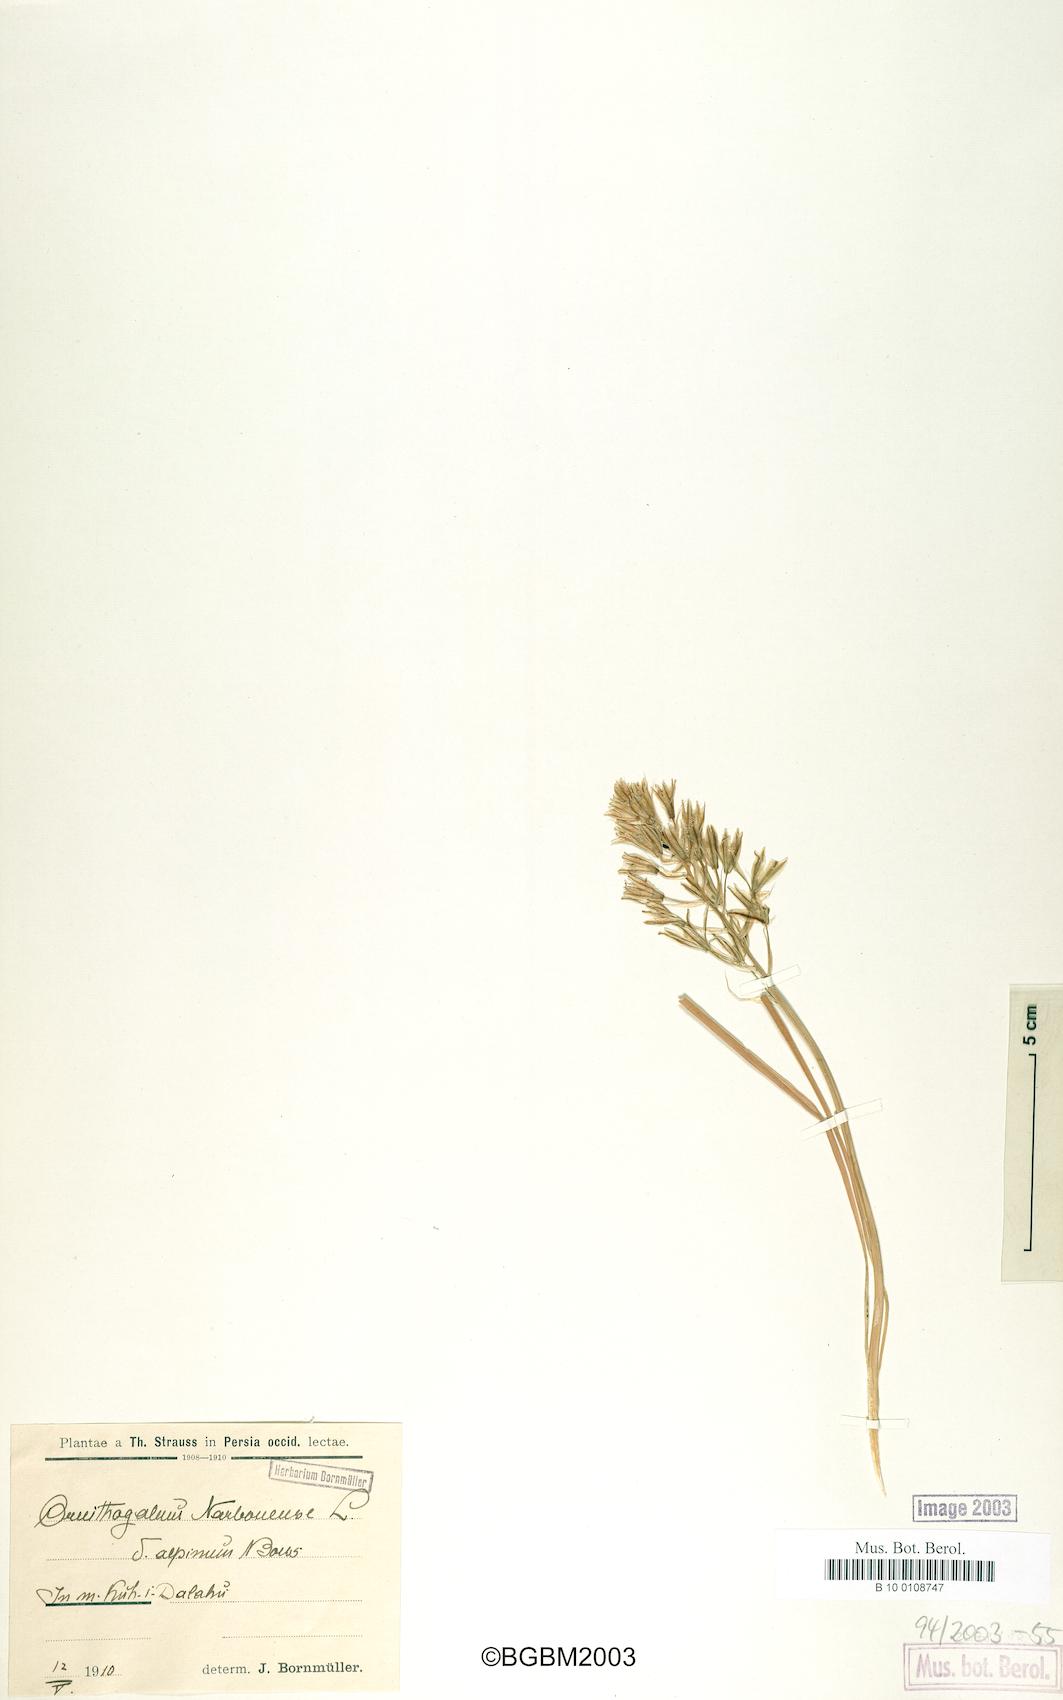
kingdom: Plantae
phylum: Tracheophyta
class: Liliopsida
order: Asparagales
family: Asparagaceae
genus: Ornithogalum
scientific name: Ornithogalum narbonense
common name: Bath-asparagus
